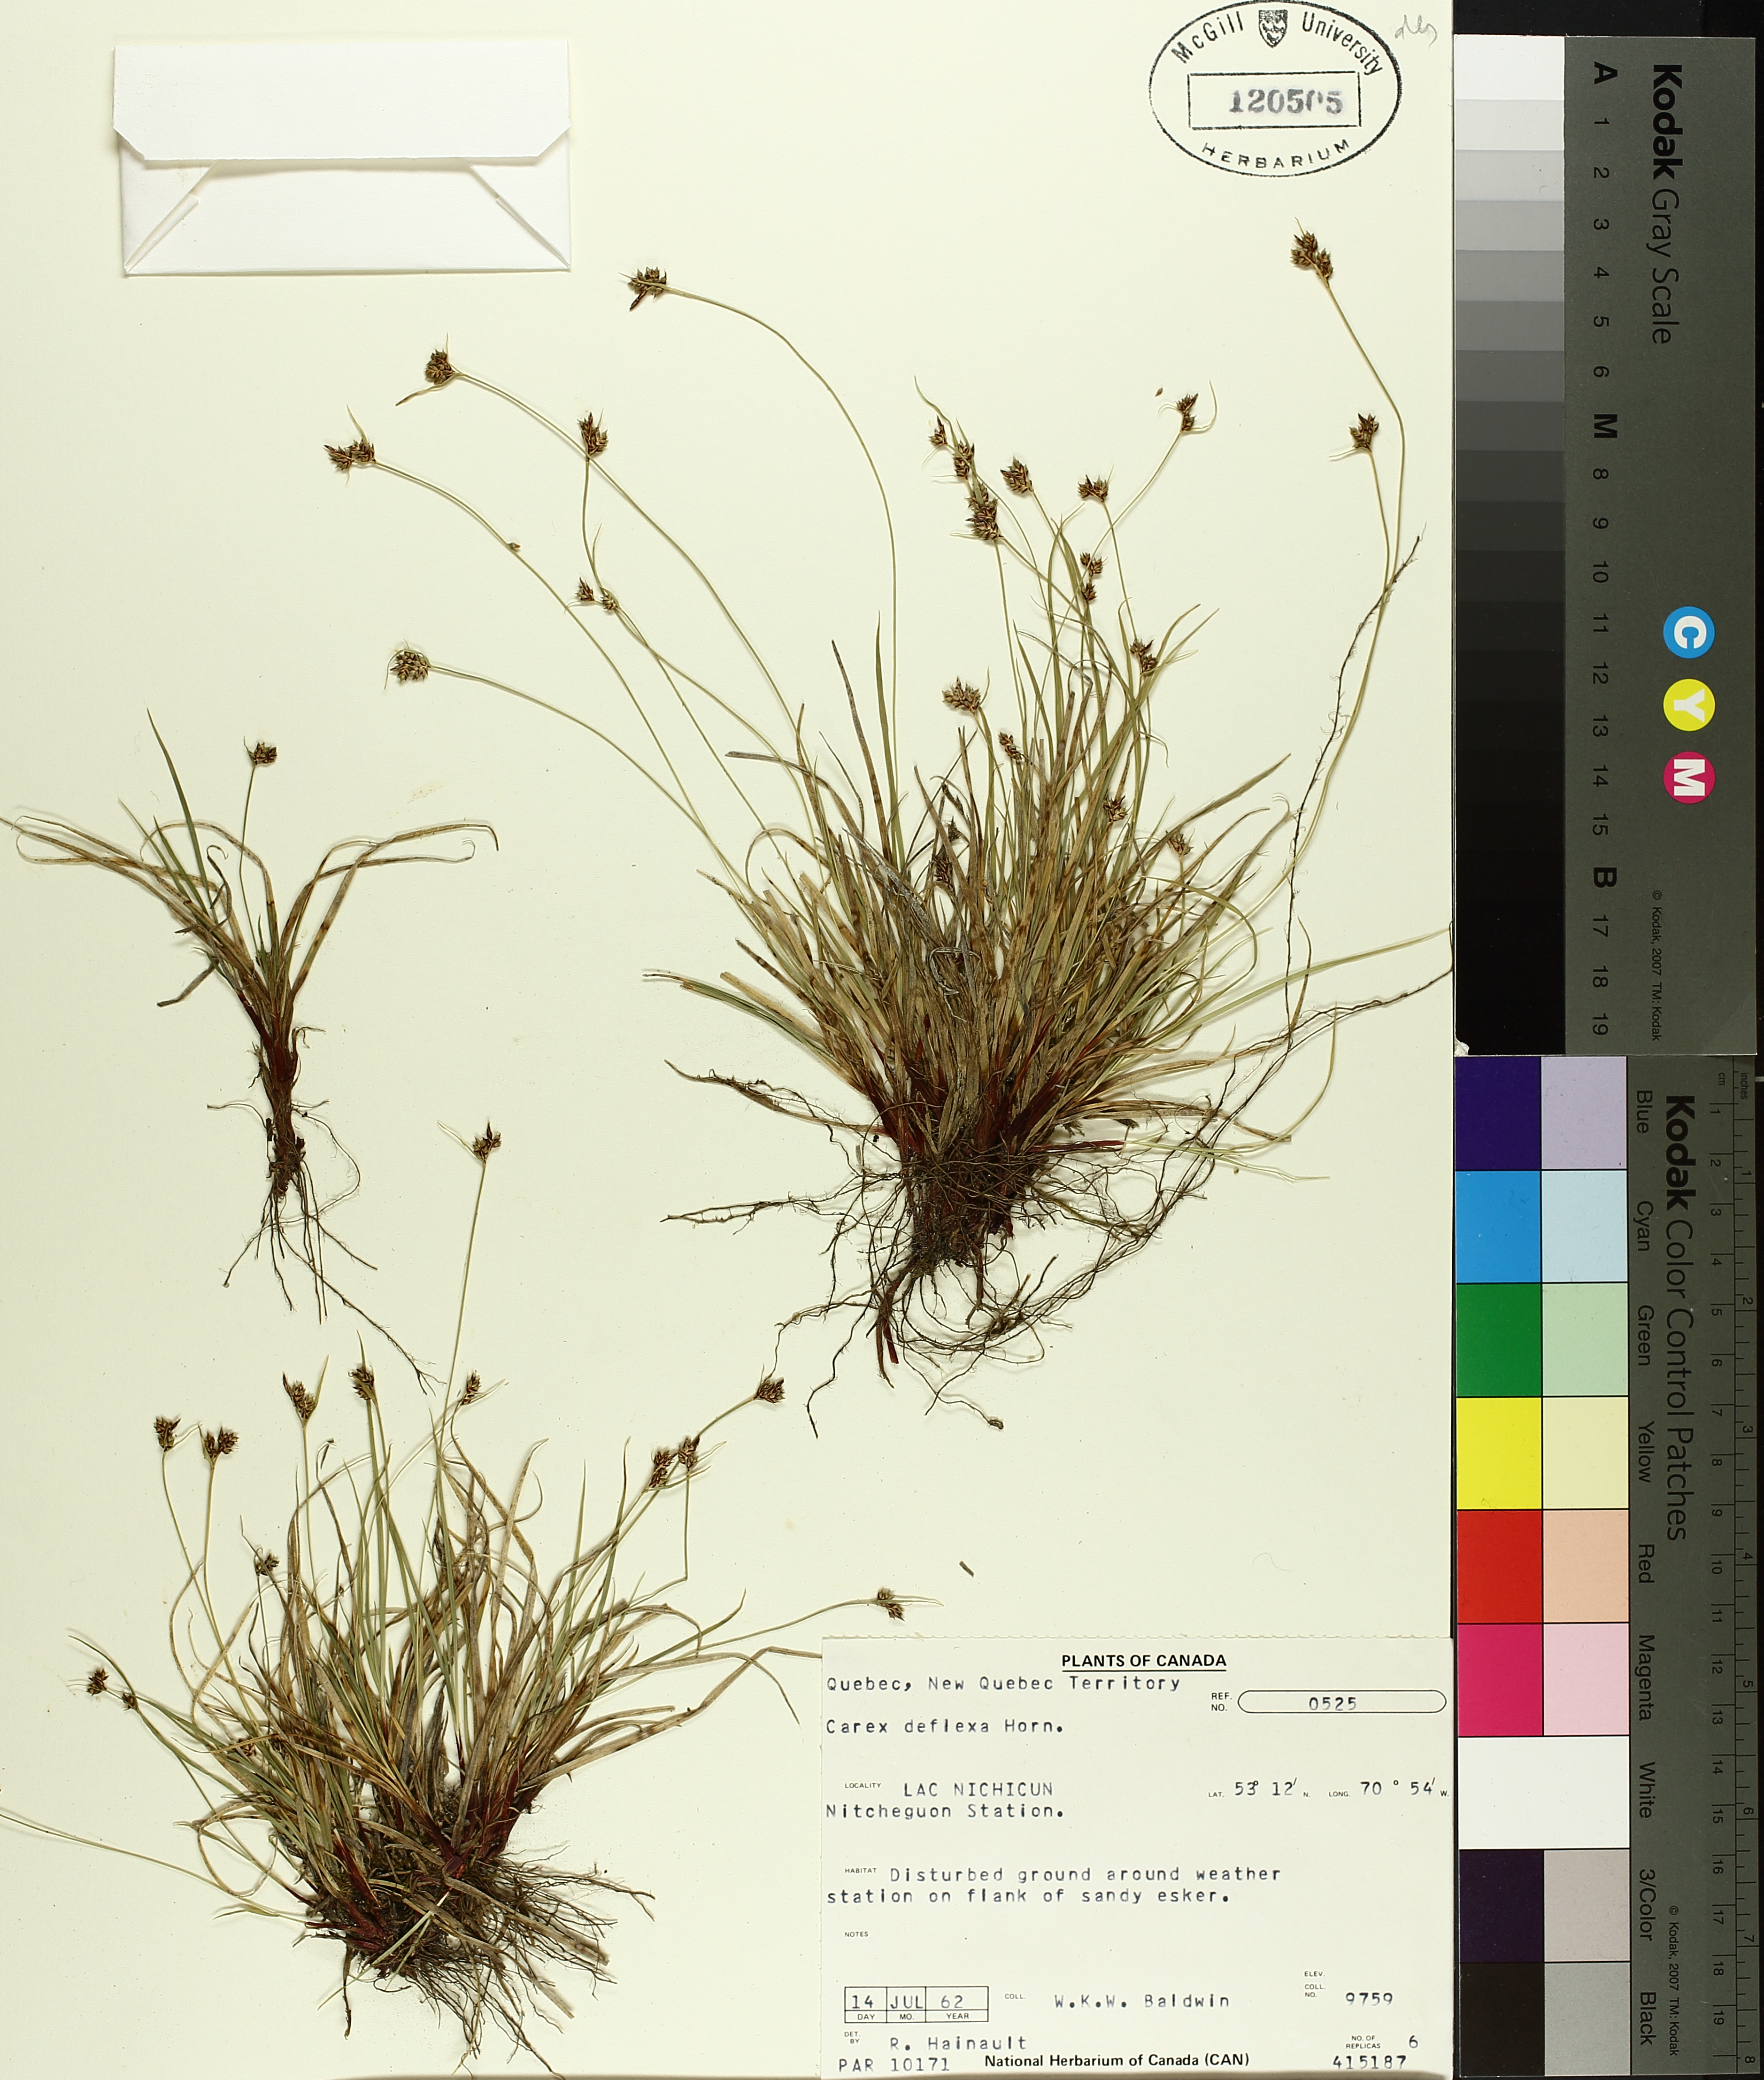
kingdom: Plantae
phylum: Tracheophyta
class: Liliopsida
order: Poales
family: Cyperaceae
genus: Carex
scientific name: Carex deflexa
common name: Bent northern sedge
